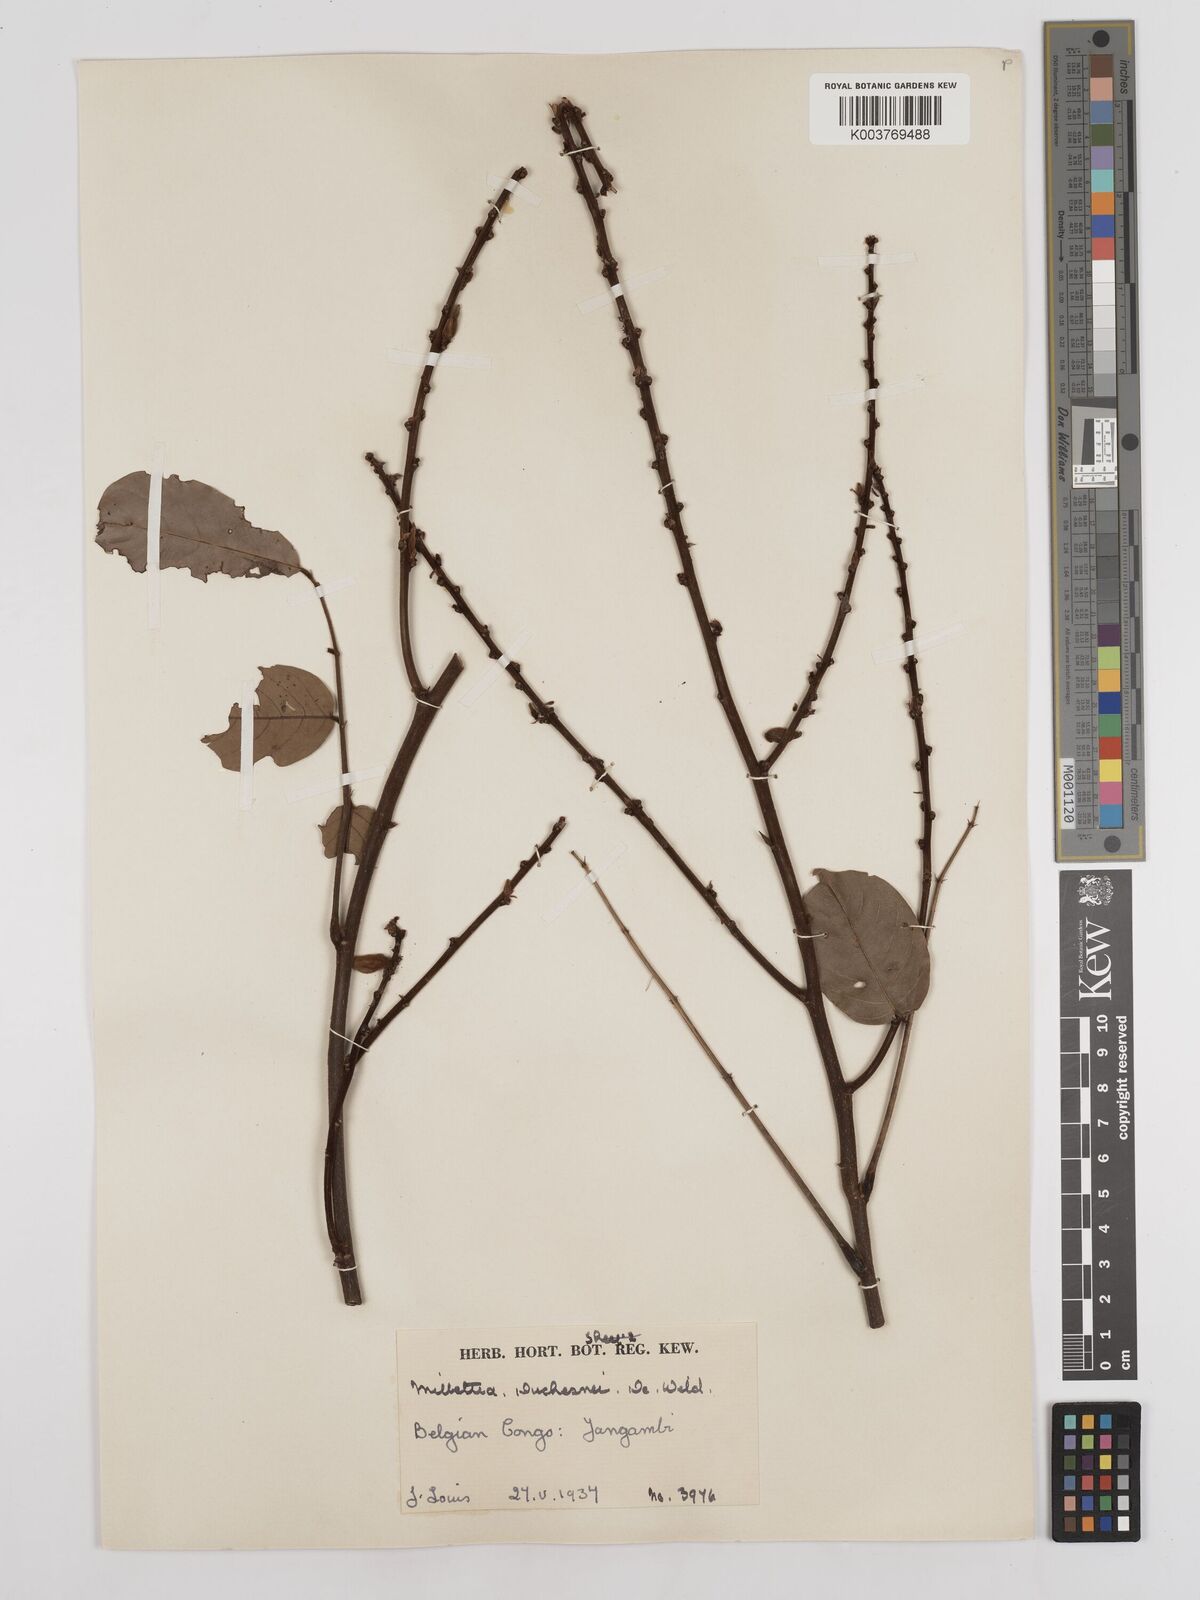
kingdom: Plantae
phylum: Tracheophyta
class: Magnoliopsida
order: Fabales
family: Fabaceae
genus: Millettia
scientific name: Millettia elskensii
